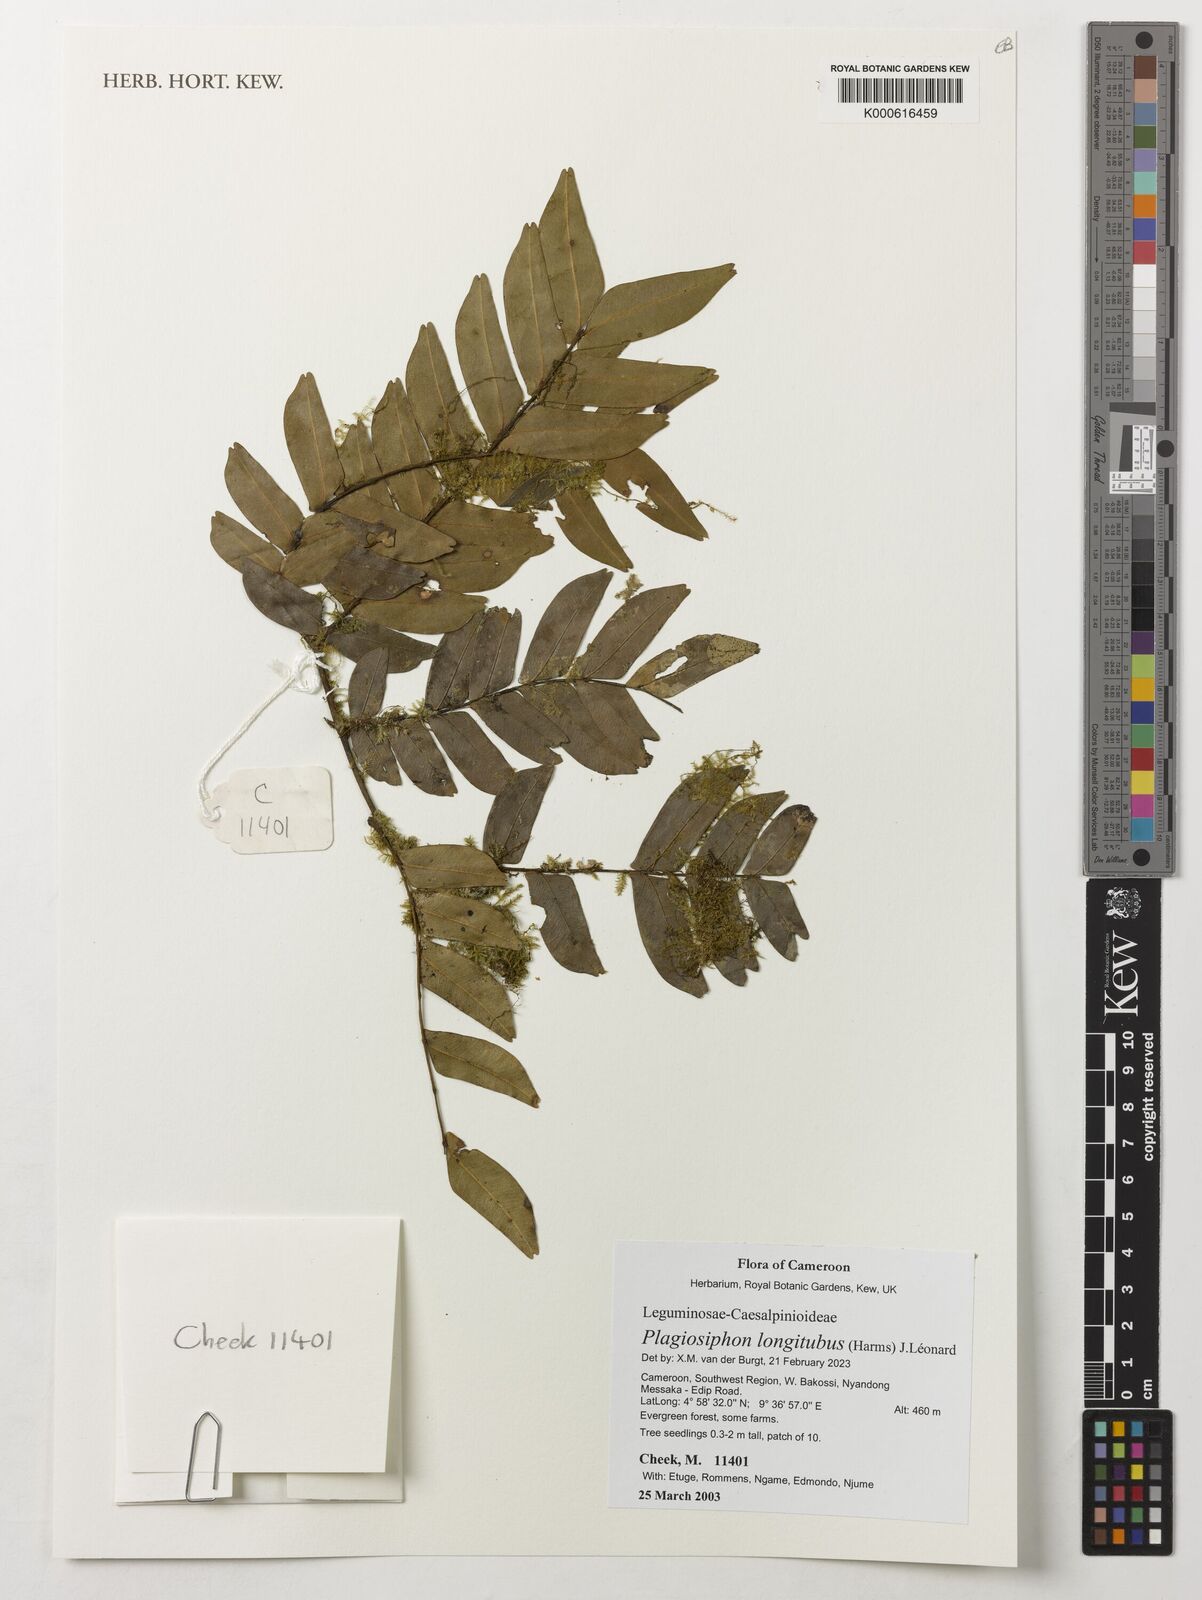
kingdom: Plantae
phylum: Tracheophyta
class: Magnoliopsida
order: Fabales
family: Fabaceae
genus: Plagiosiphon
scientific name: Plagiosiphon longituba
